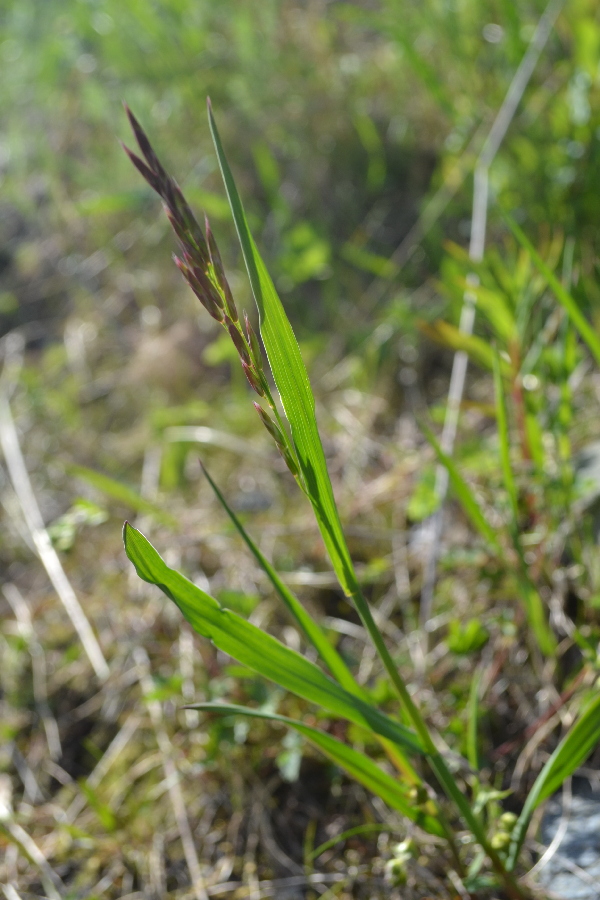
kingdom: Plantae
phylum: Tracheophyta
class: Liliopsida
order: Poales
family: Poaceae
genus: Bromus
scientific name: Bromus pumpellianus
